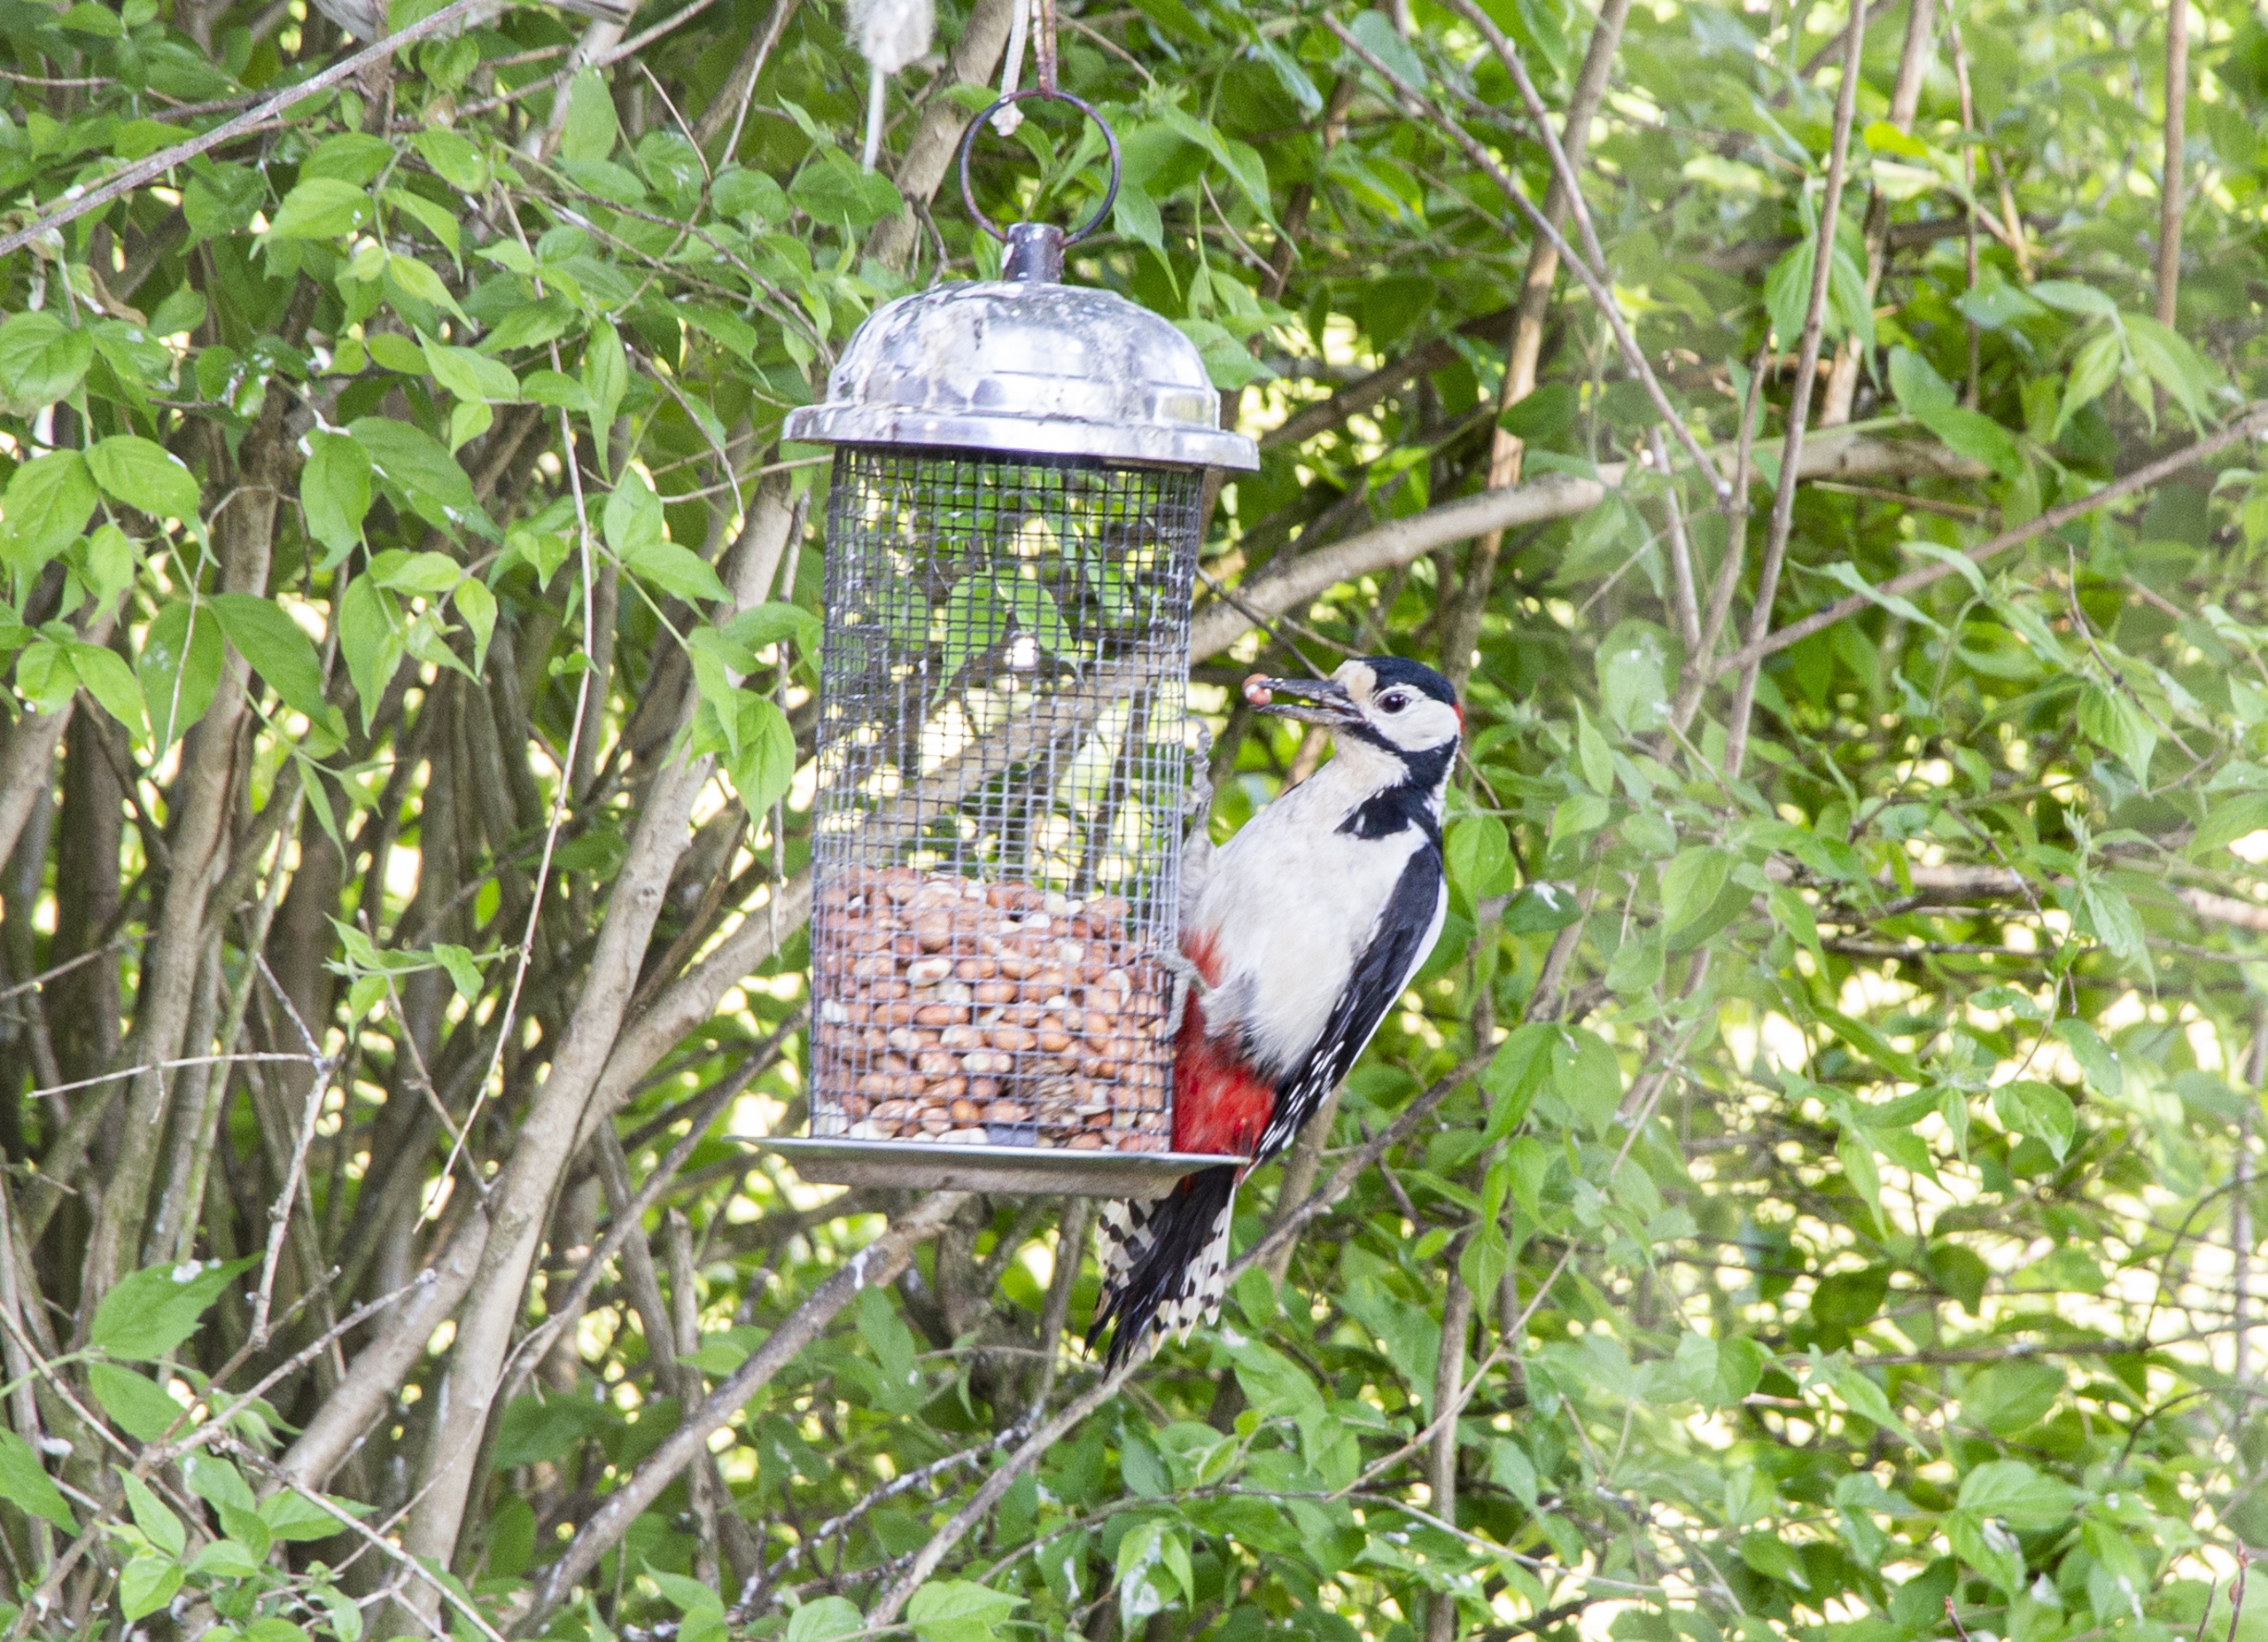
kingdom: Animalia
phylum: Chordata
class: Aves
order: Piciformes
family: Picidae
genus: Dendrocopos
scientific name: Dendrocopos major
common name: Stor flagspætte
